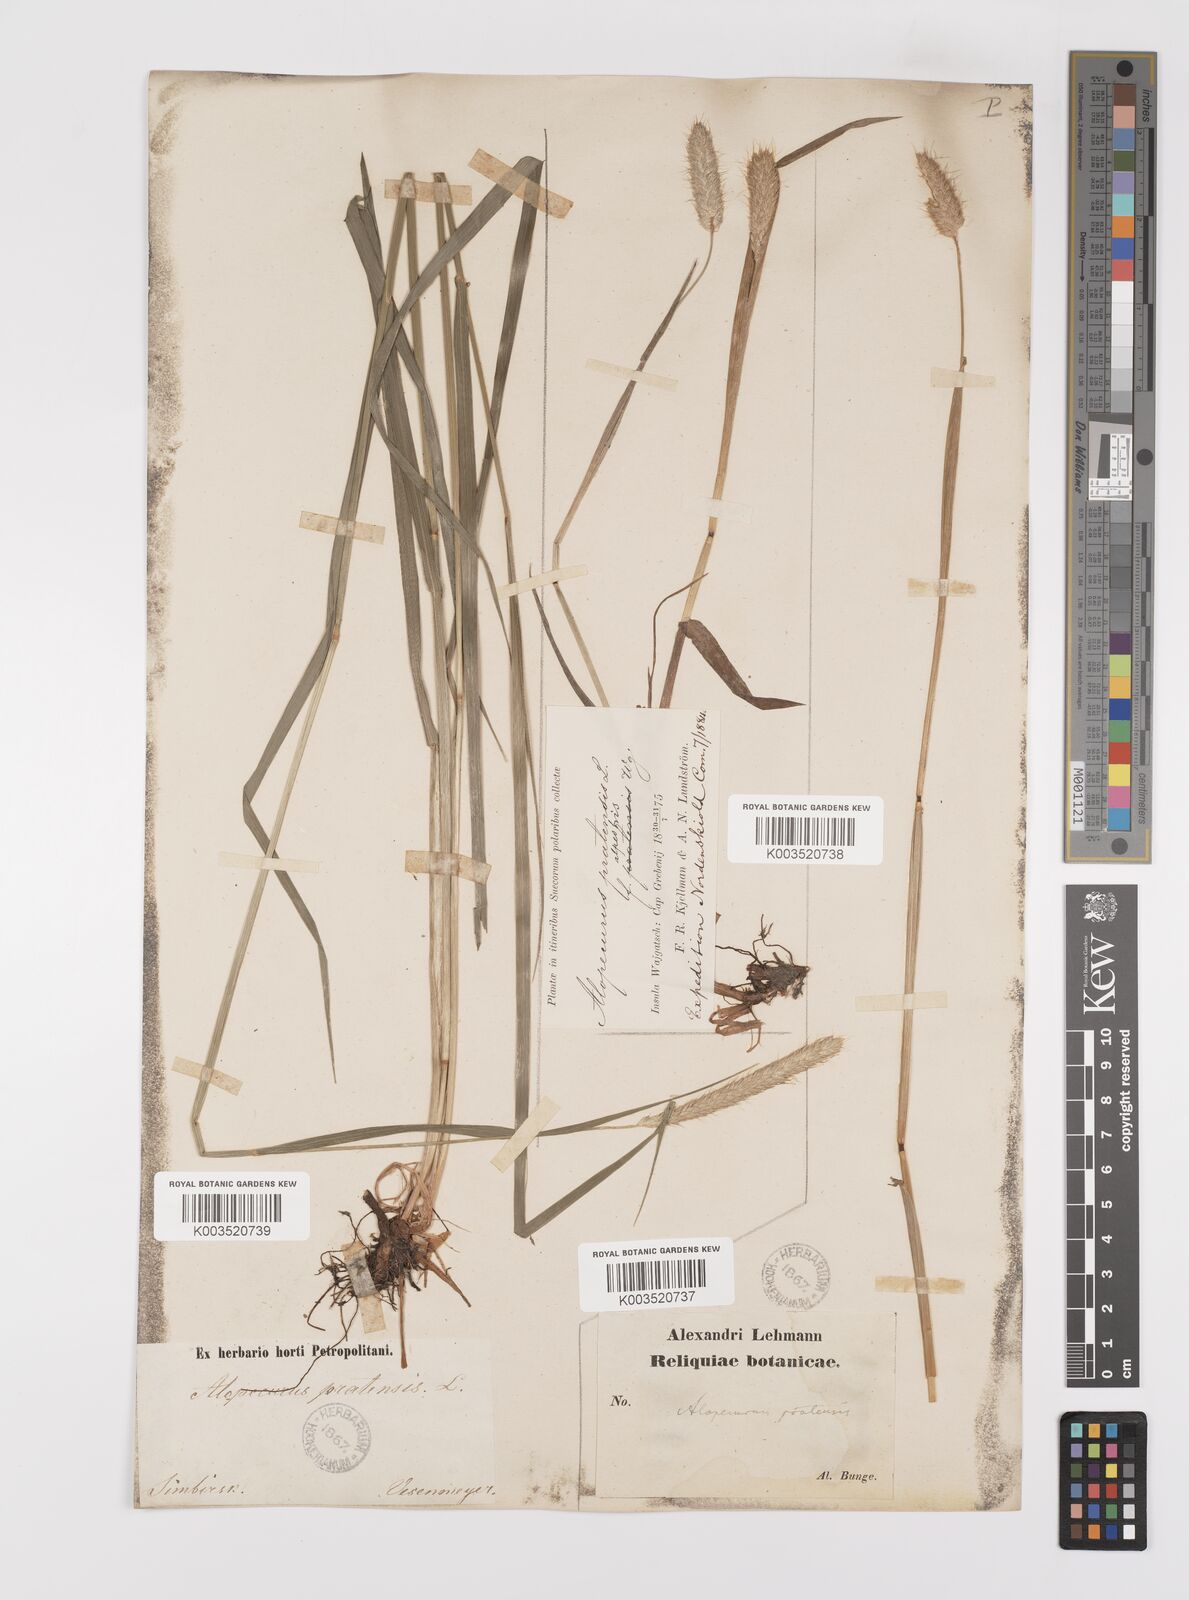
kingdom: Plantae
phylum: Tracheophyta
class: Liliopsida
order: Poales
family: Poaceae
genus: Alopecurus
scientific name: Alopecurus pratensis
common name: Meadow foxtail
